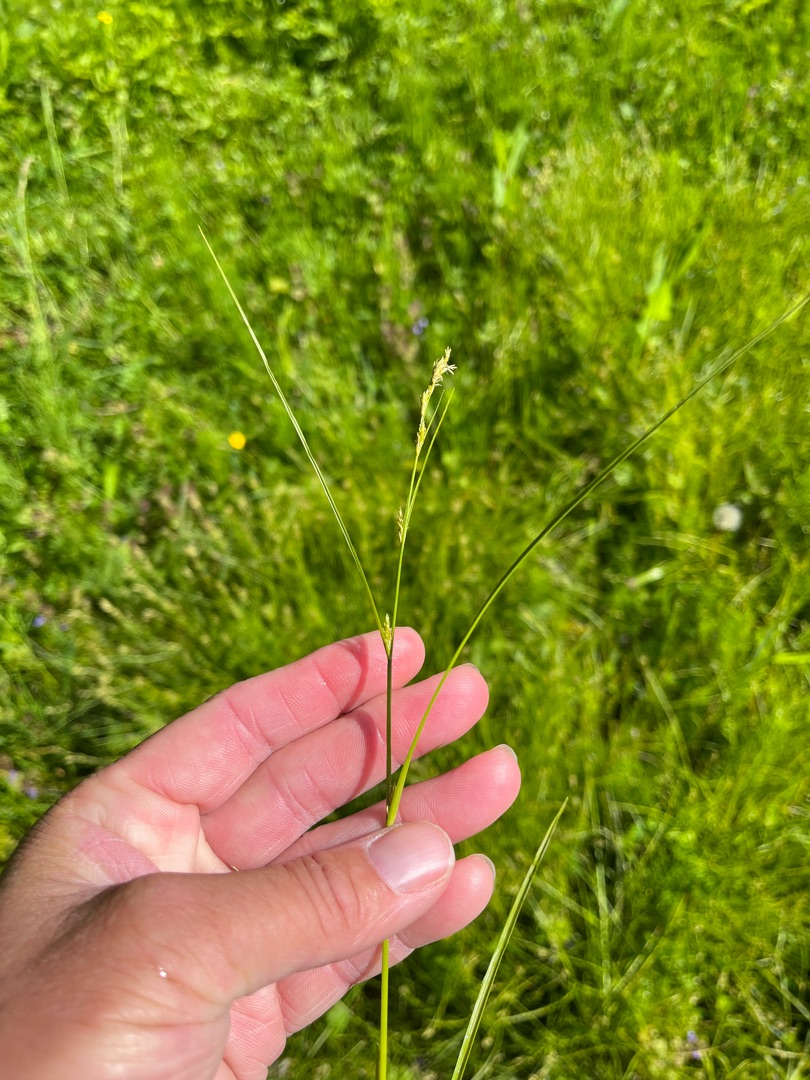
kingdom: Plantae
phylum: Tracheophyta
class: Liliopsida
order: Poales
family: Cyperaceae
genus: Carex
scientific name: Carex remota
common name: Akselblomstret star
